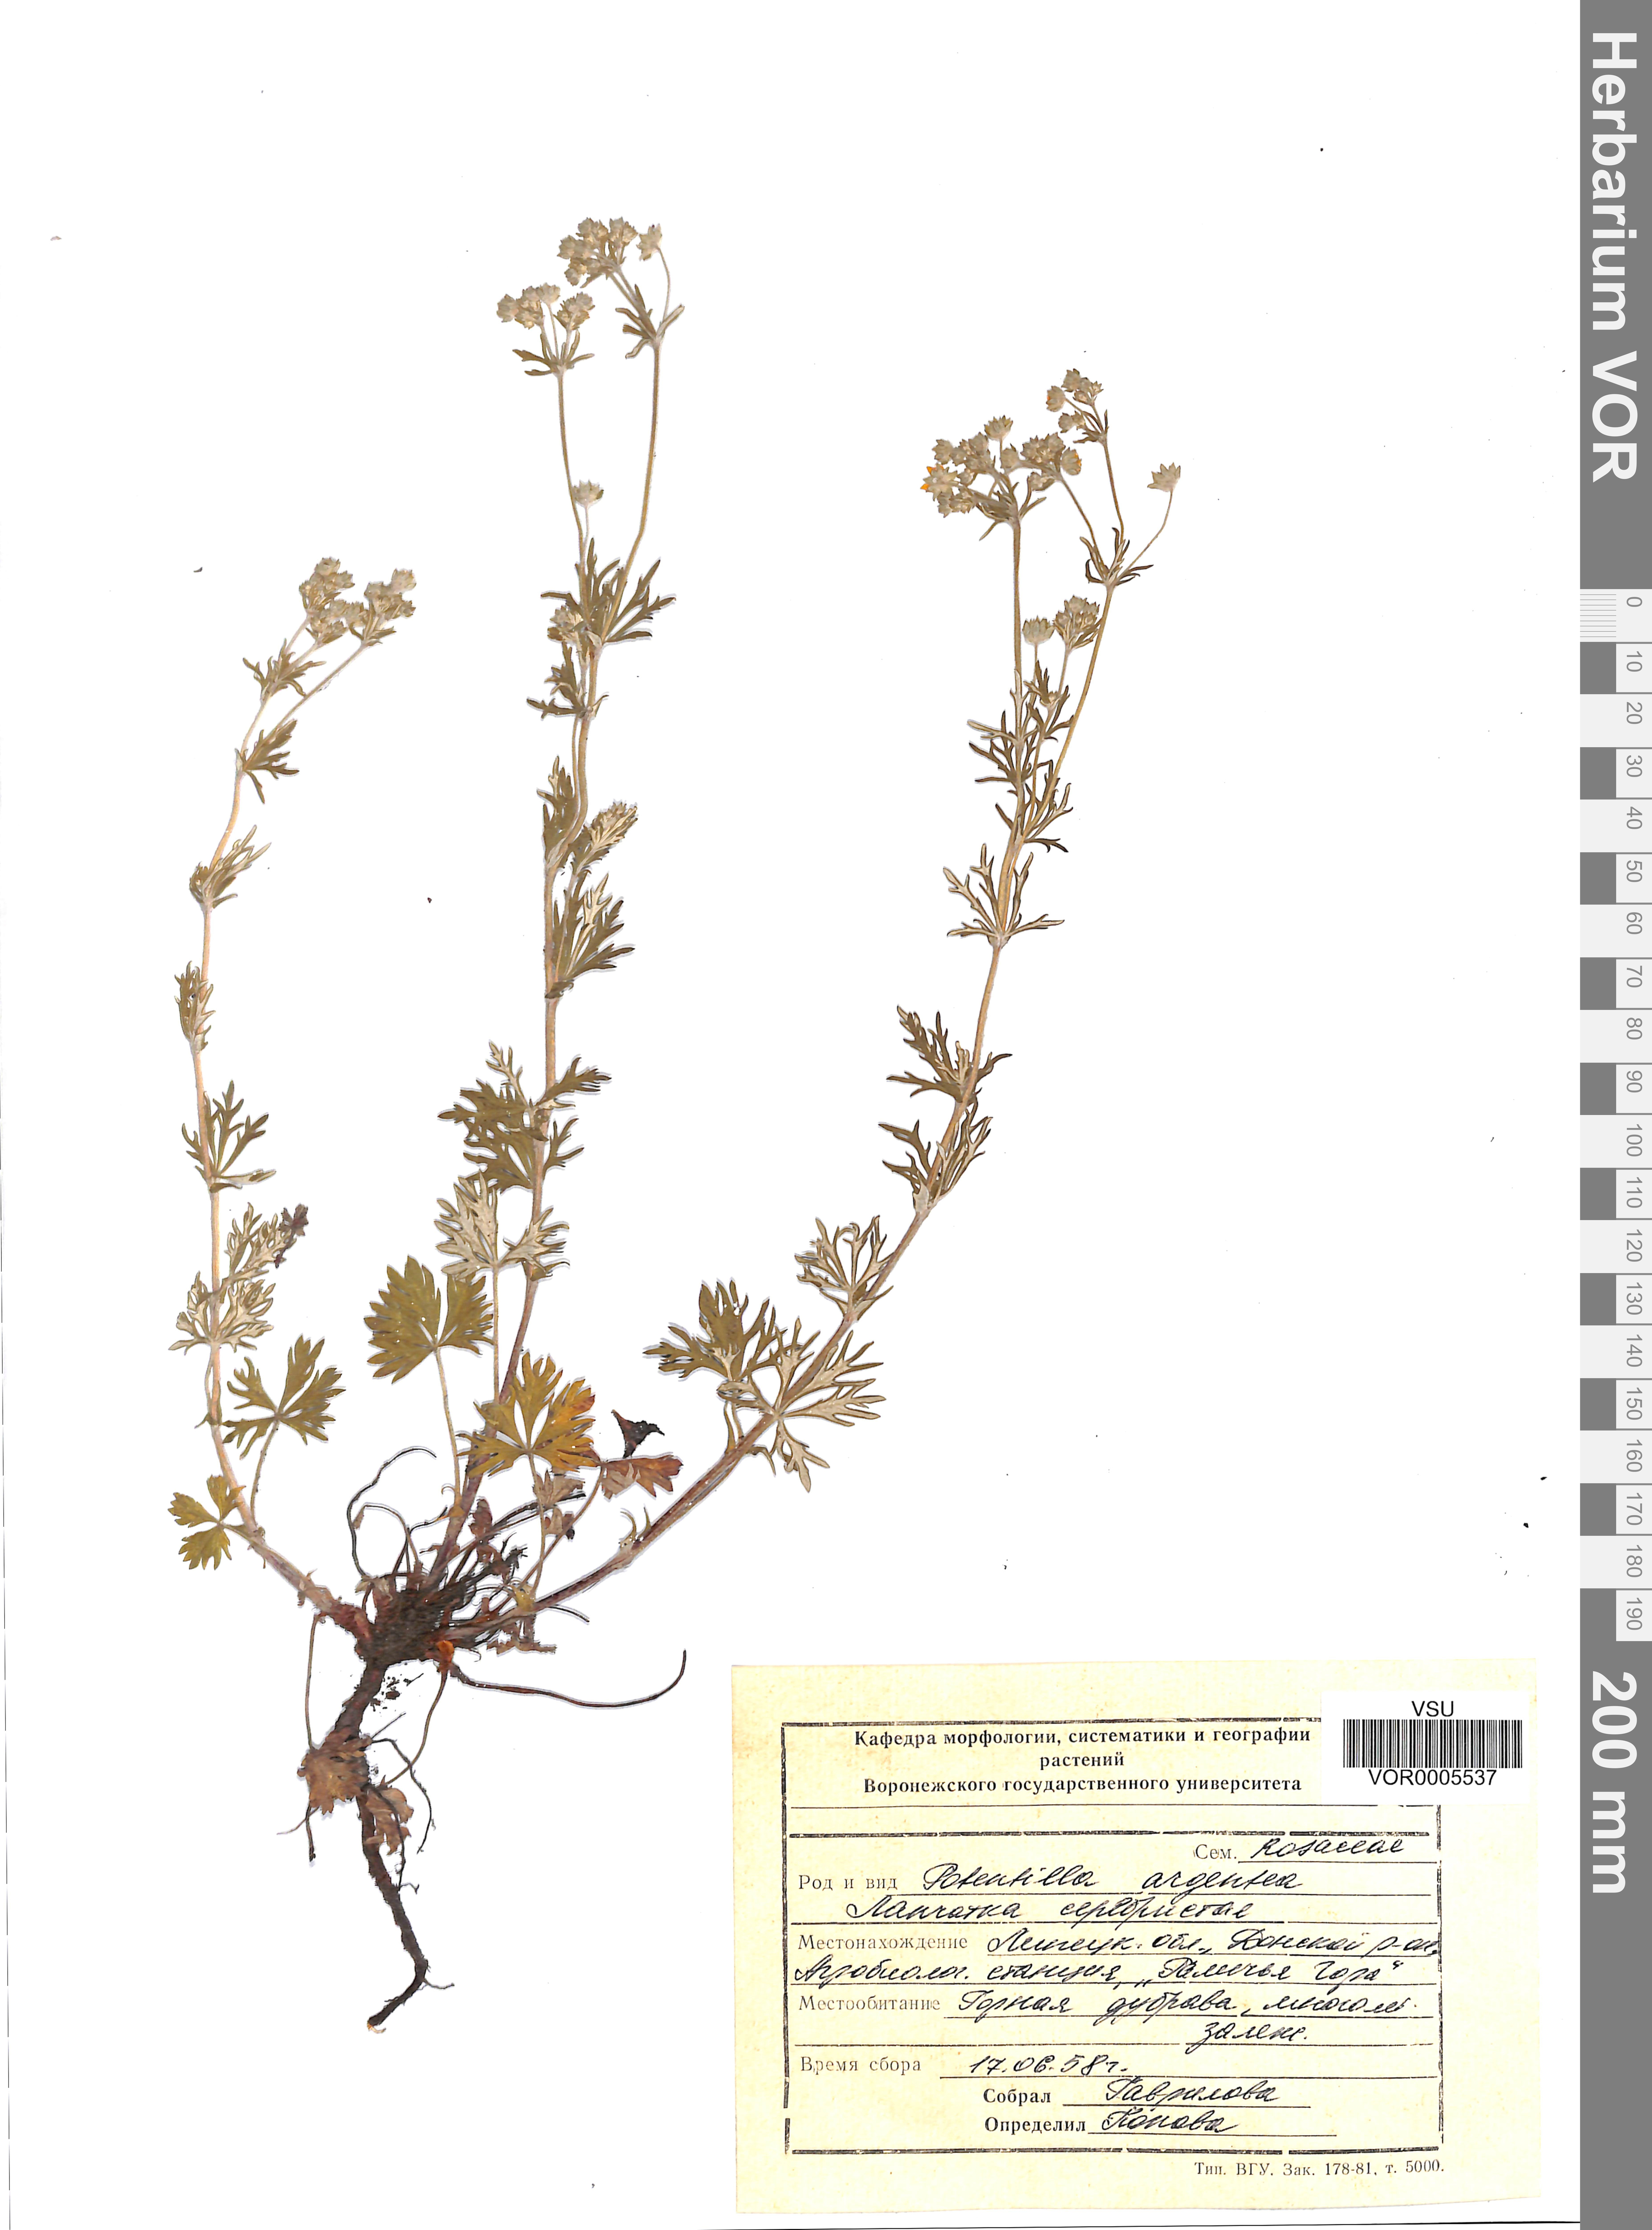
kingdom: Plantae
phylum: Tracheophyta
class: Magnoliopsida
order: Rosales
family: Rosaceae
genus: Potentilla
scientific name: Potentilla argentea
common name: Hoary cinquefoil
